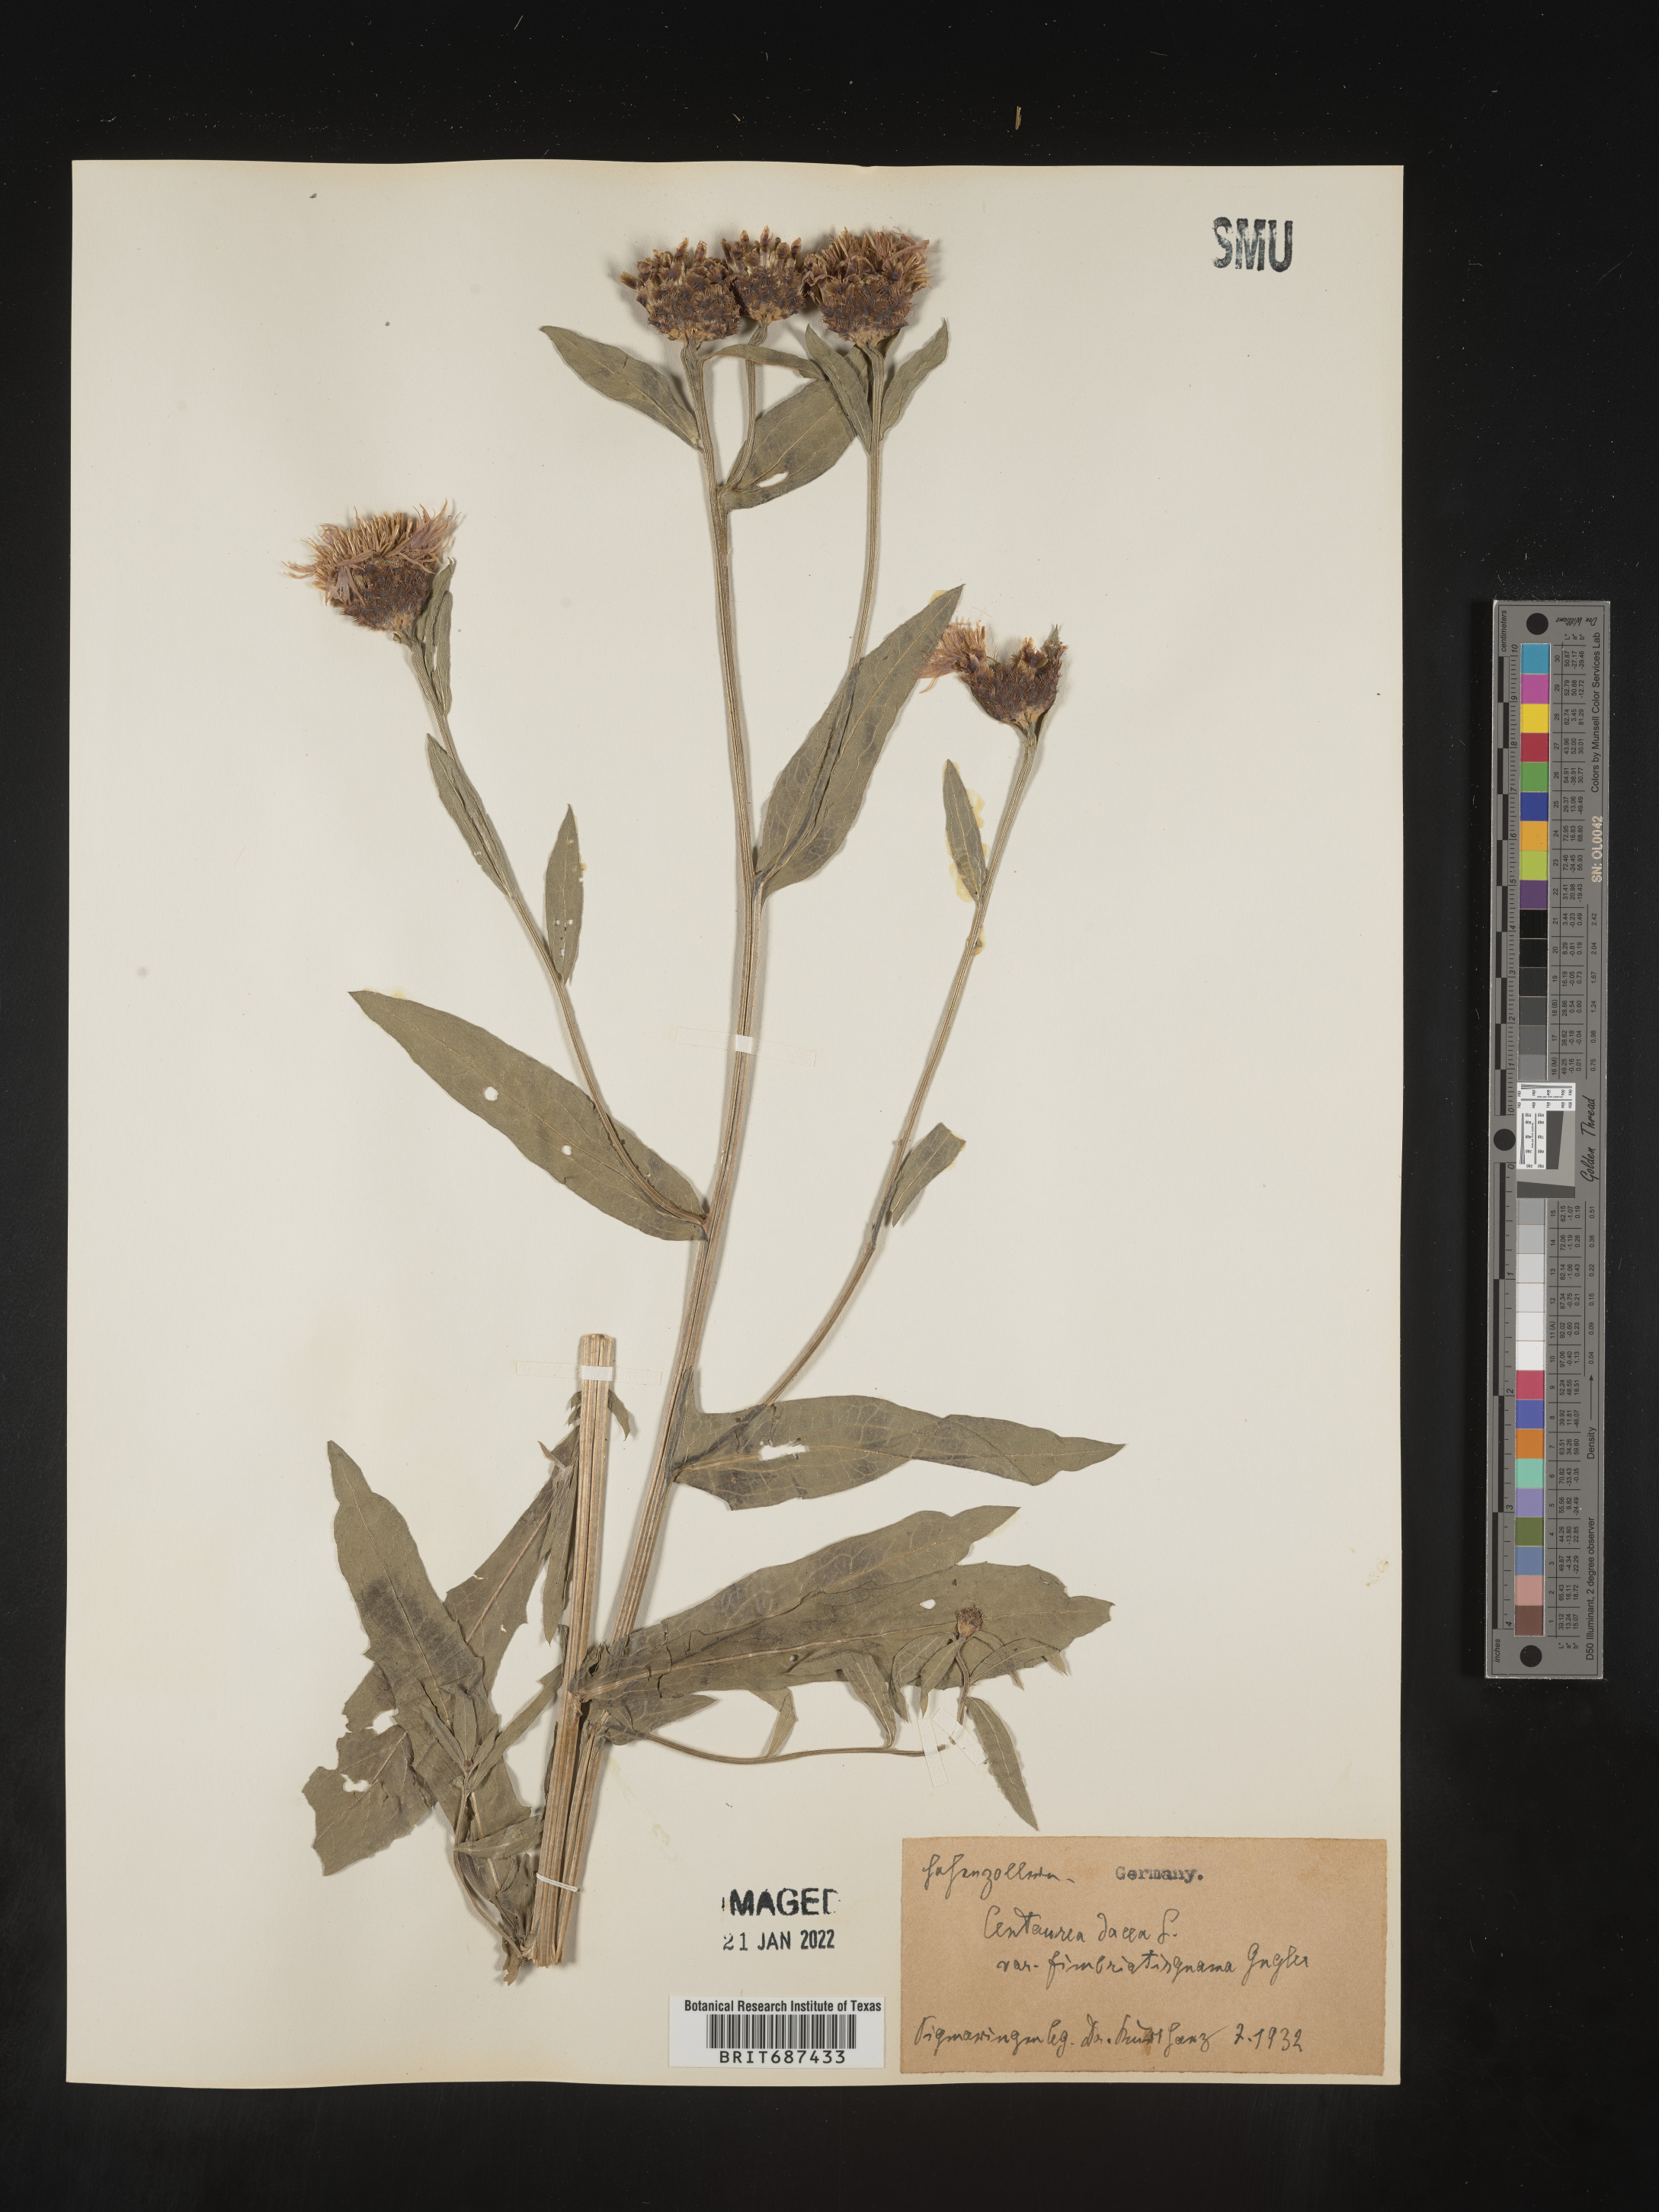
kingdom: Plantae
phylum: Tracheophyta
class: Magnoliopsida
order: Asterales
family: Asteraceae
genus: Centaurea
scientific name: Centaurea jacea
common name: Brown knapweed
